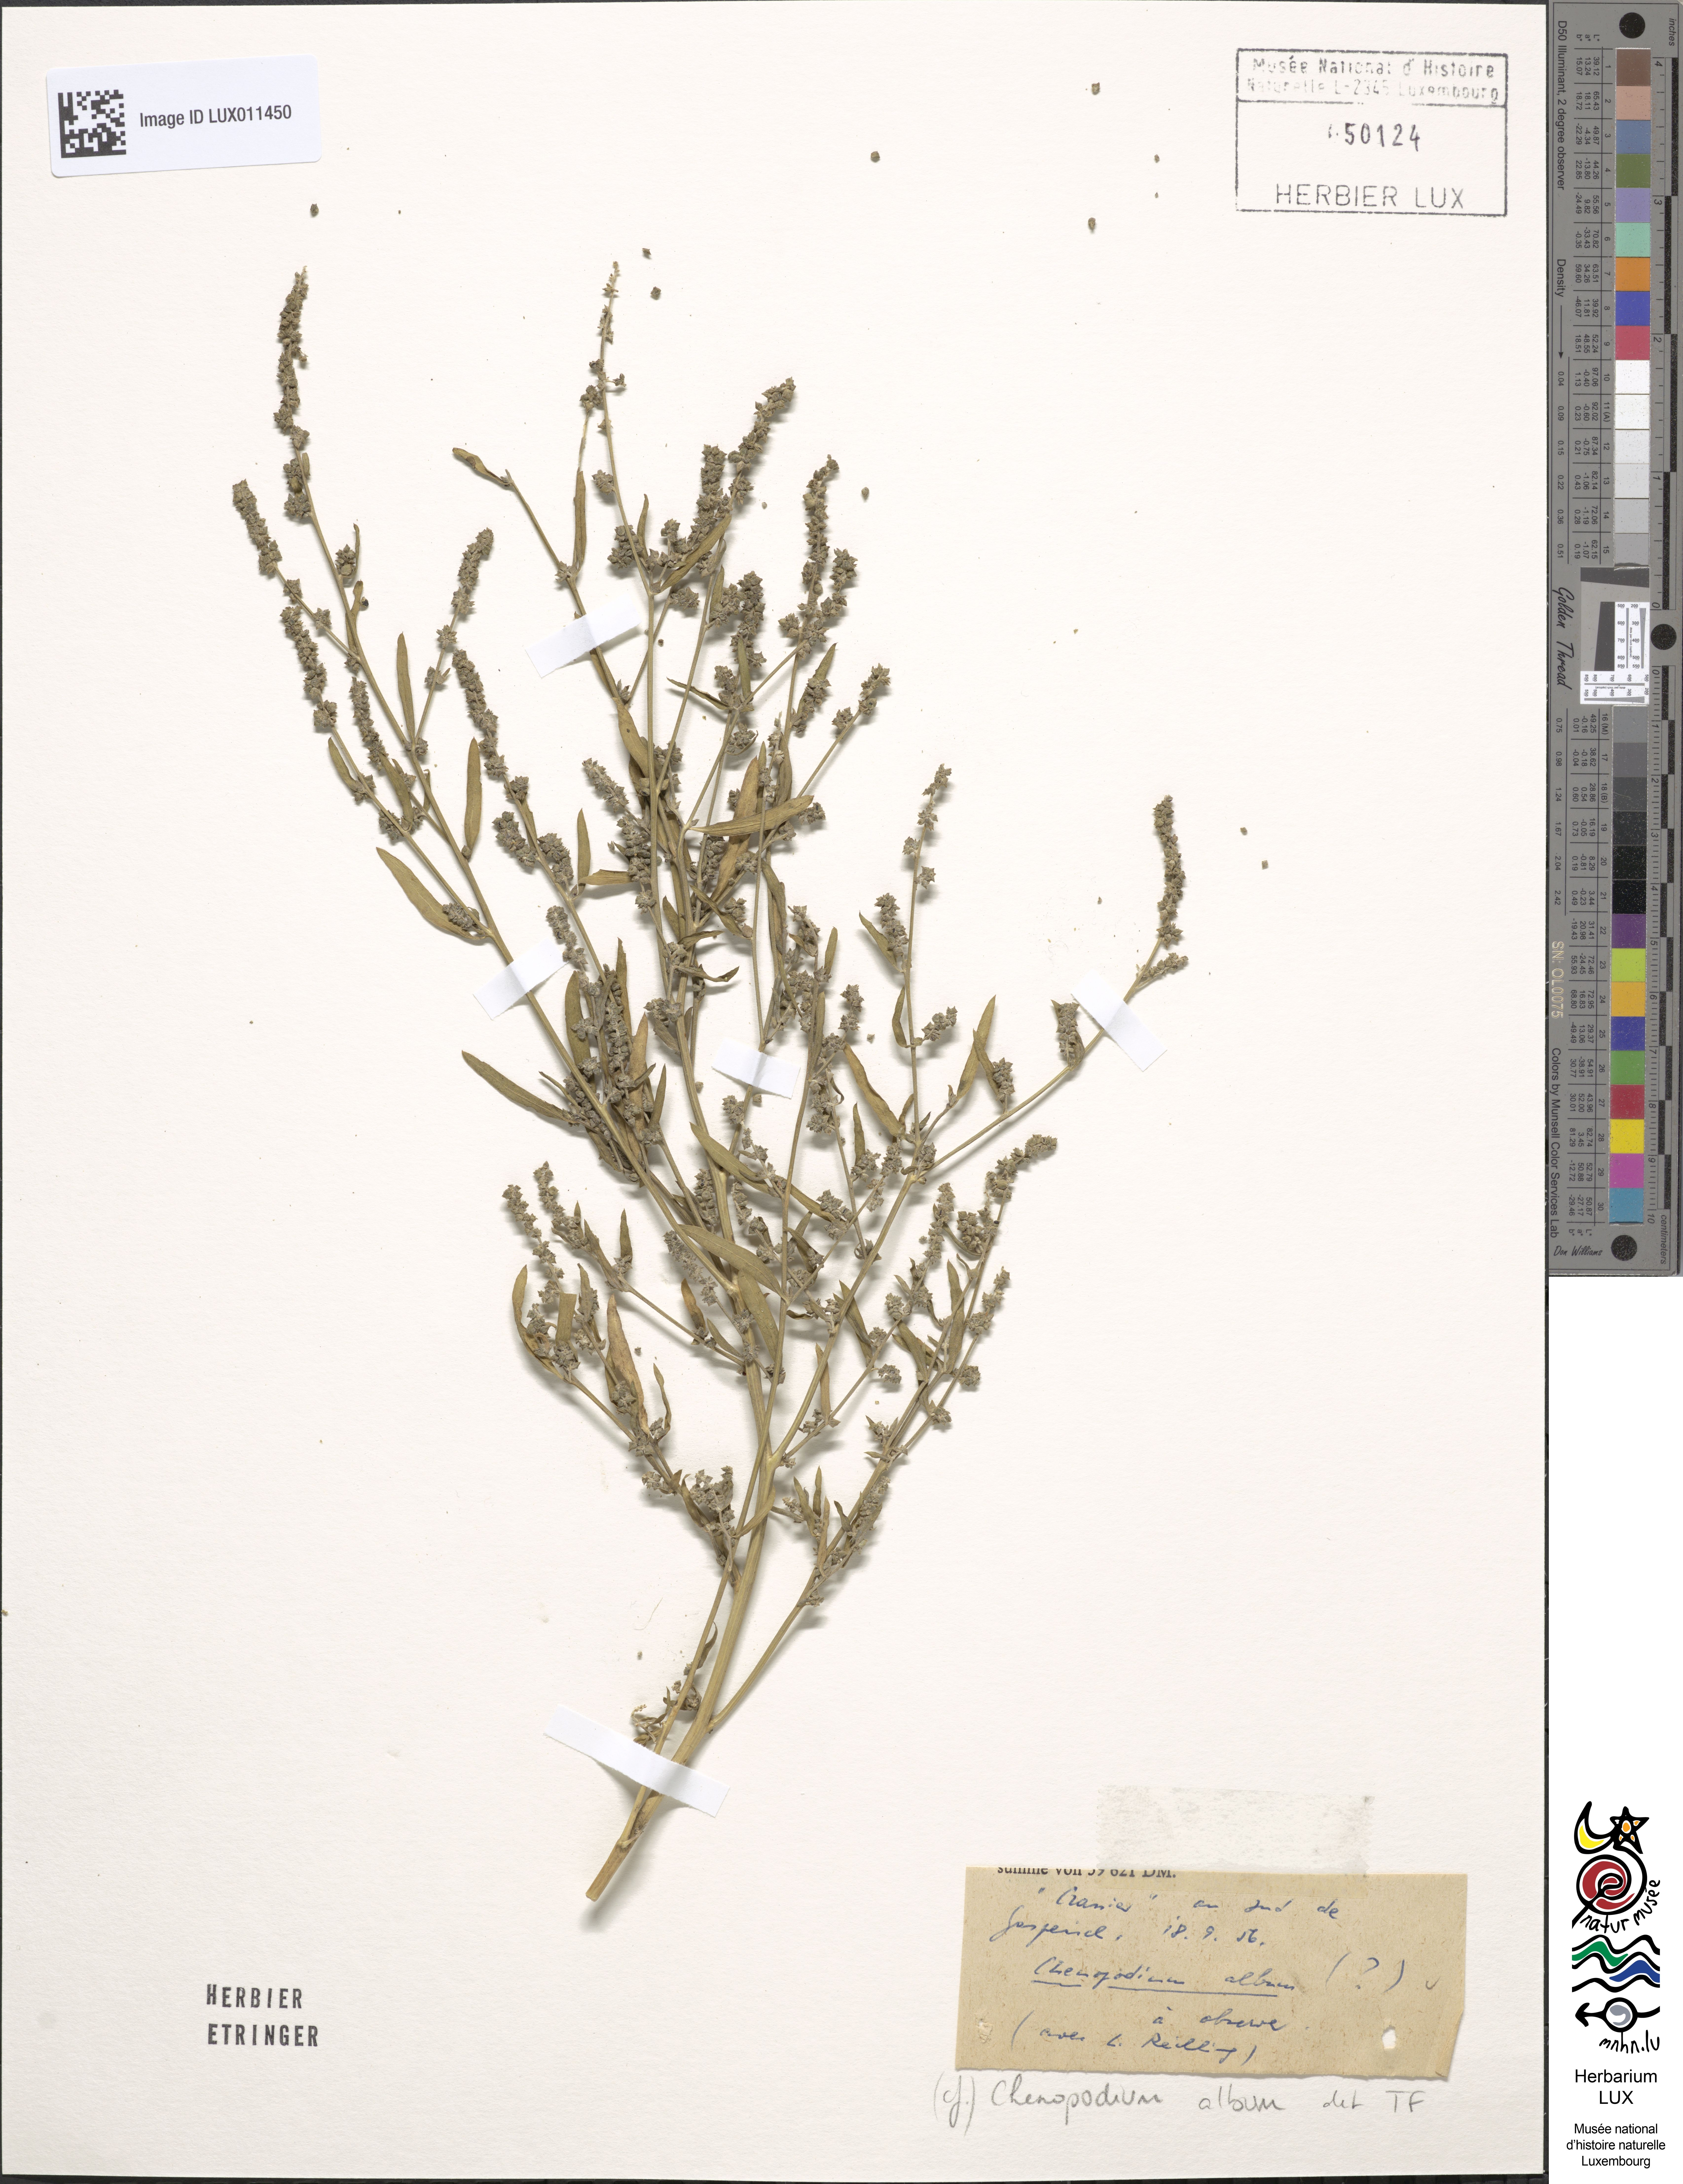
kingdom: Plantae
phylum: Tracheophyta
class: Magnoliopsida
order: Caryophyllales
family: Amaranthaceae
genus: Chenopodium
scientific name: Chenopodium album
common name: Fat-hen
